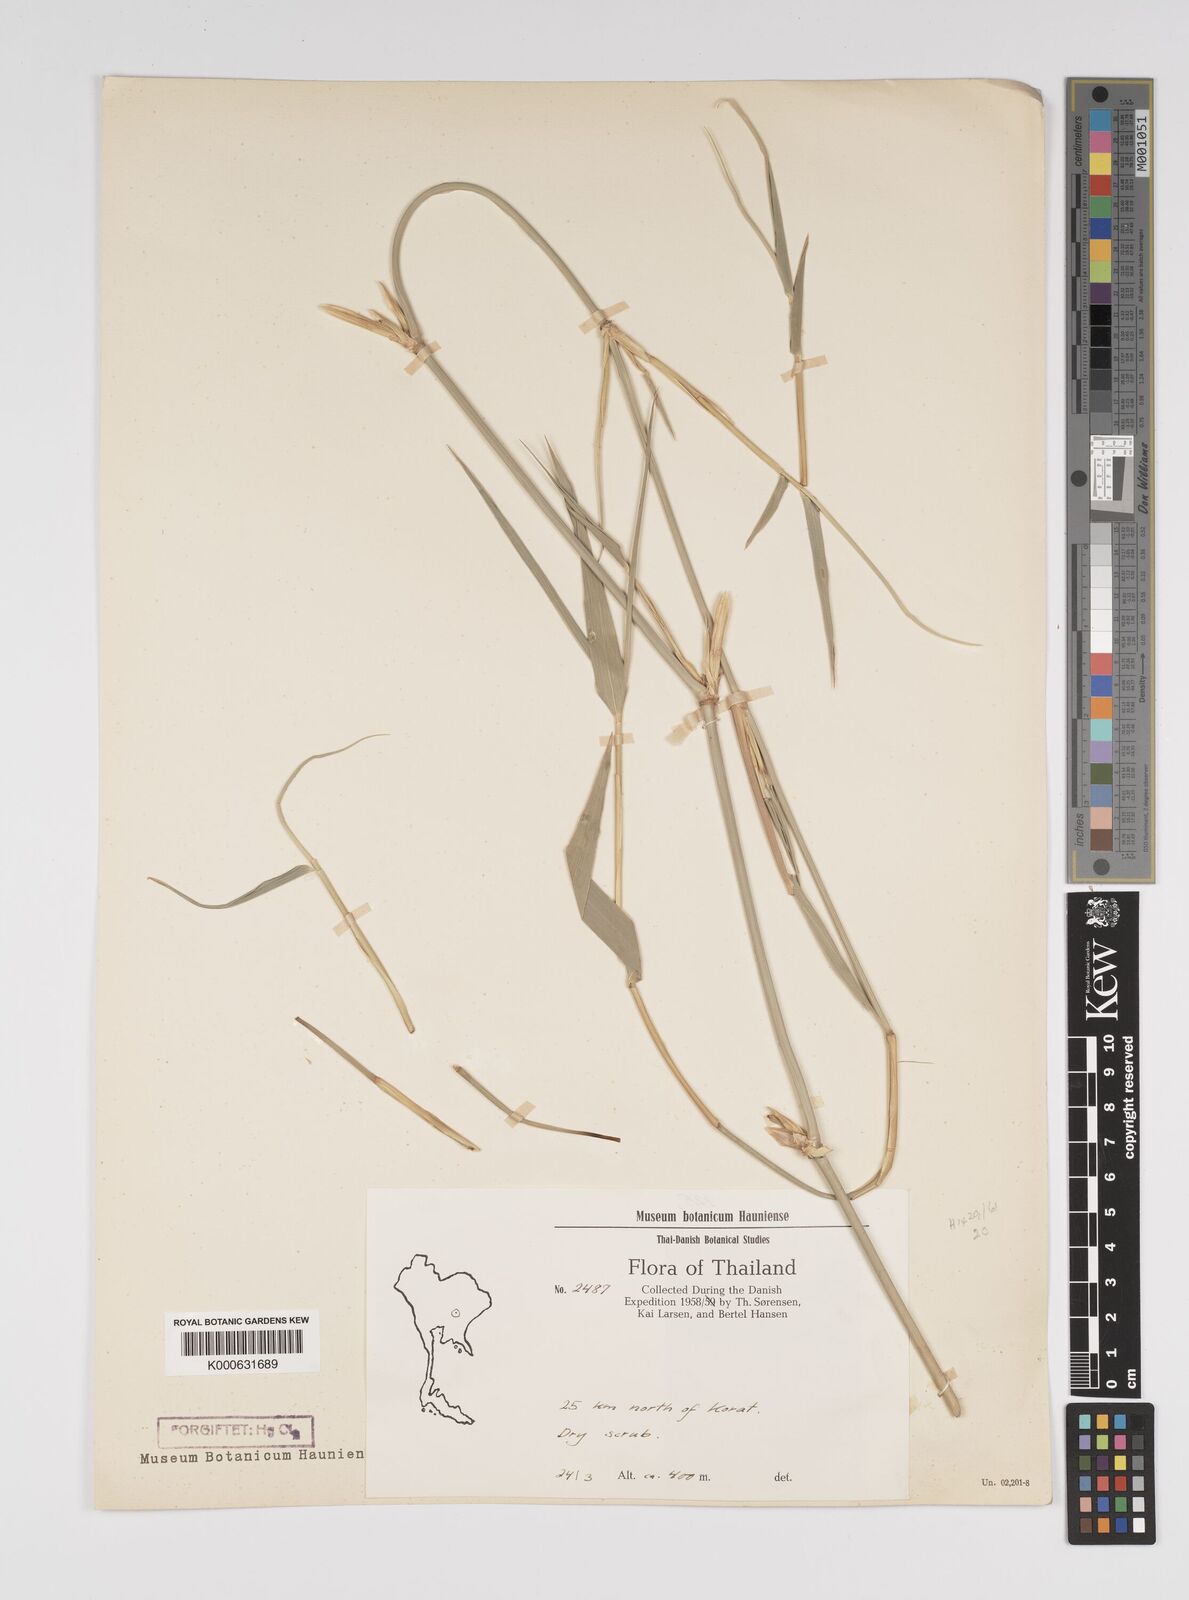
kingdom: Plantae
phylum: Tracheophyta
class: Liliopsida
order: Poales
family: Poaceae
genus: Bambusa
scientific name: Bambusa
